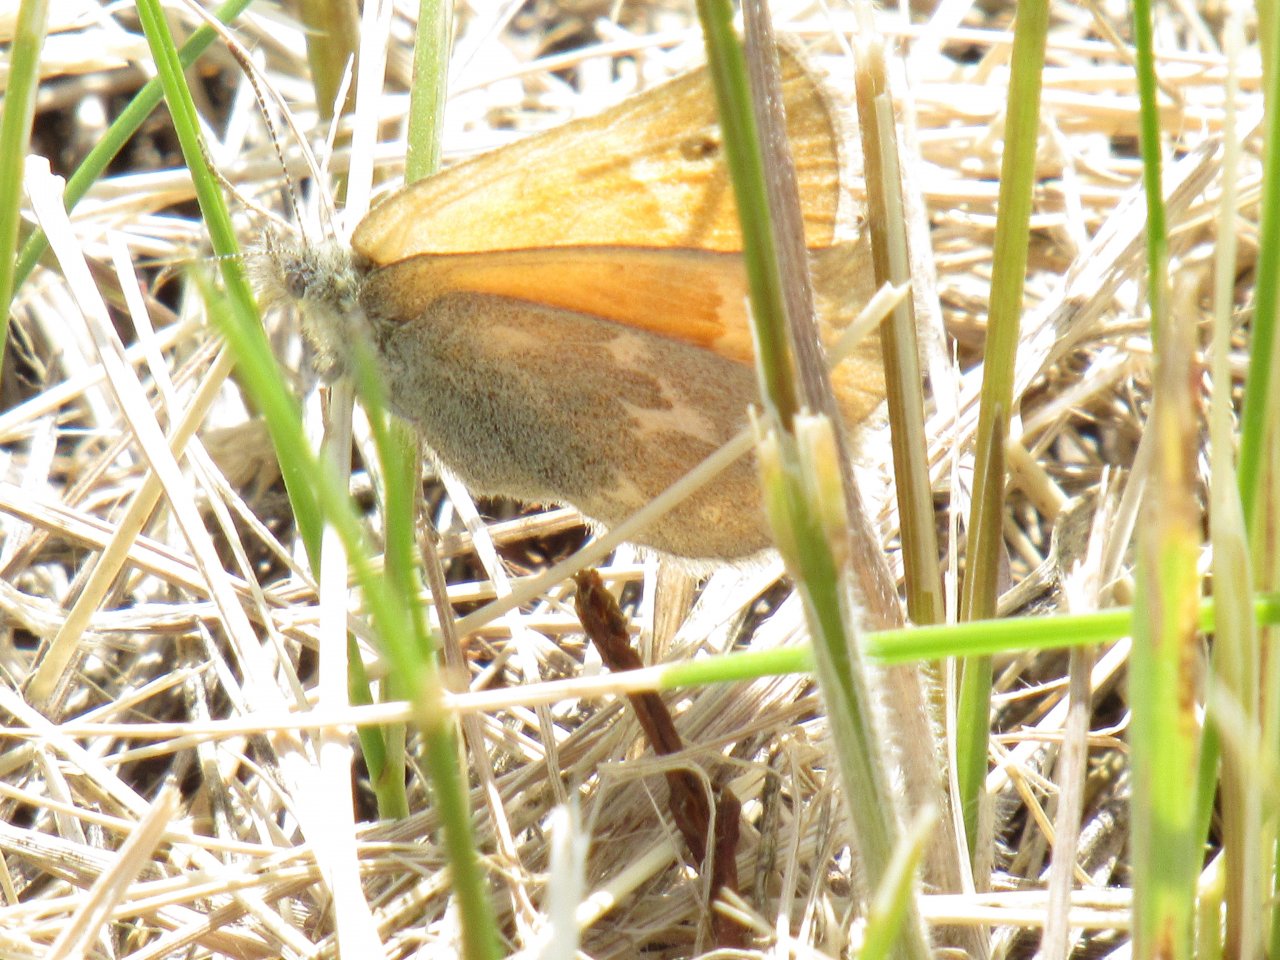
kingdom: Animalia
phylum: Arthropoda
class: Insecta
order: Lepidoptera
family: Nymphalidae
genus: Coenonympha
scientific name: Coenonympha tullia
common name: Large Heath
